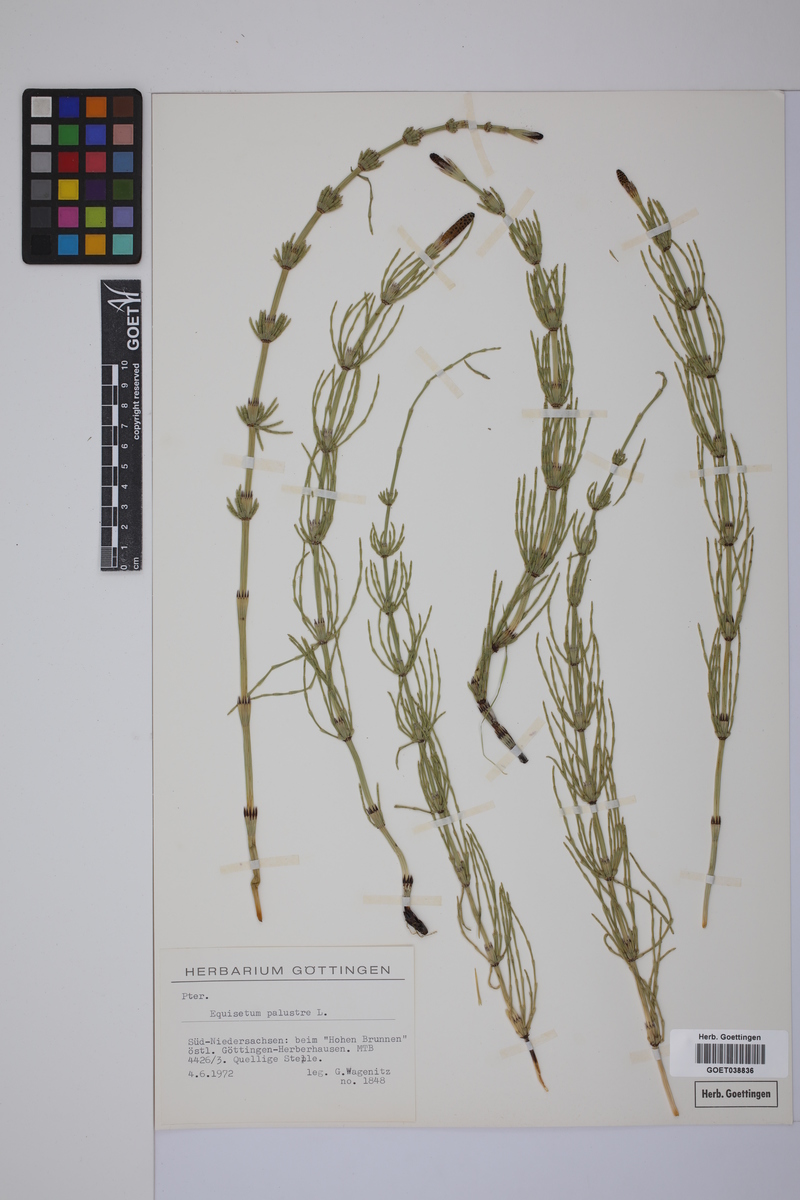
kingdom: Plantae
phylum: Tracheophyta
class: Polypodiopsida
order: Equisetales
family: Equisetaceae
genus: Equisetum
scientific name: Equisetum palustre
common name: Marsh horsetail
